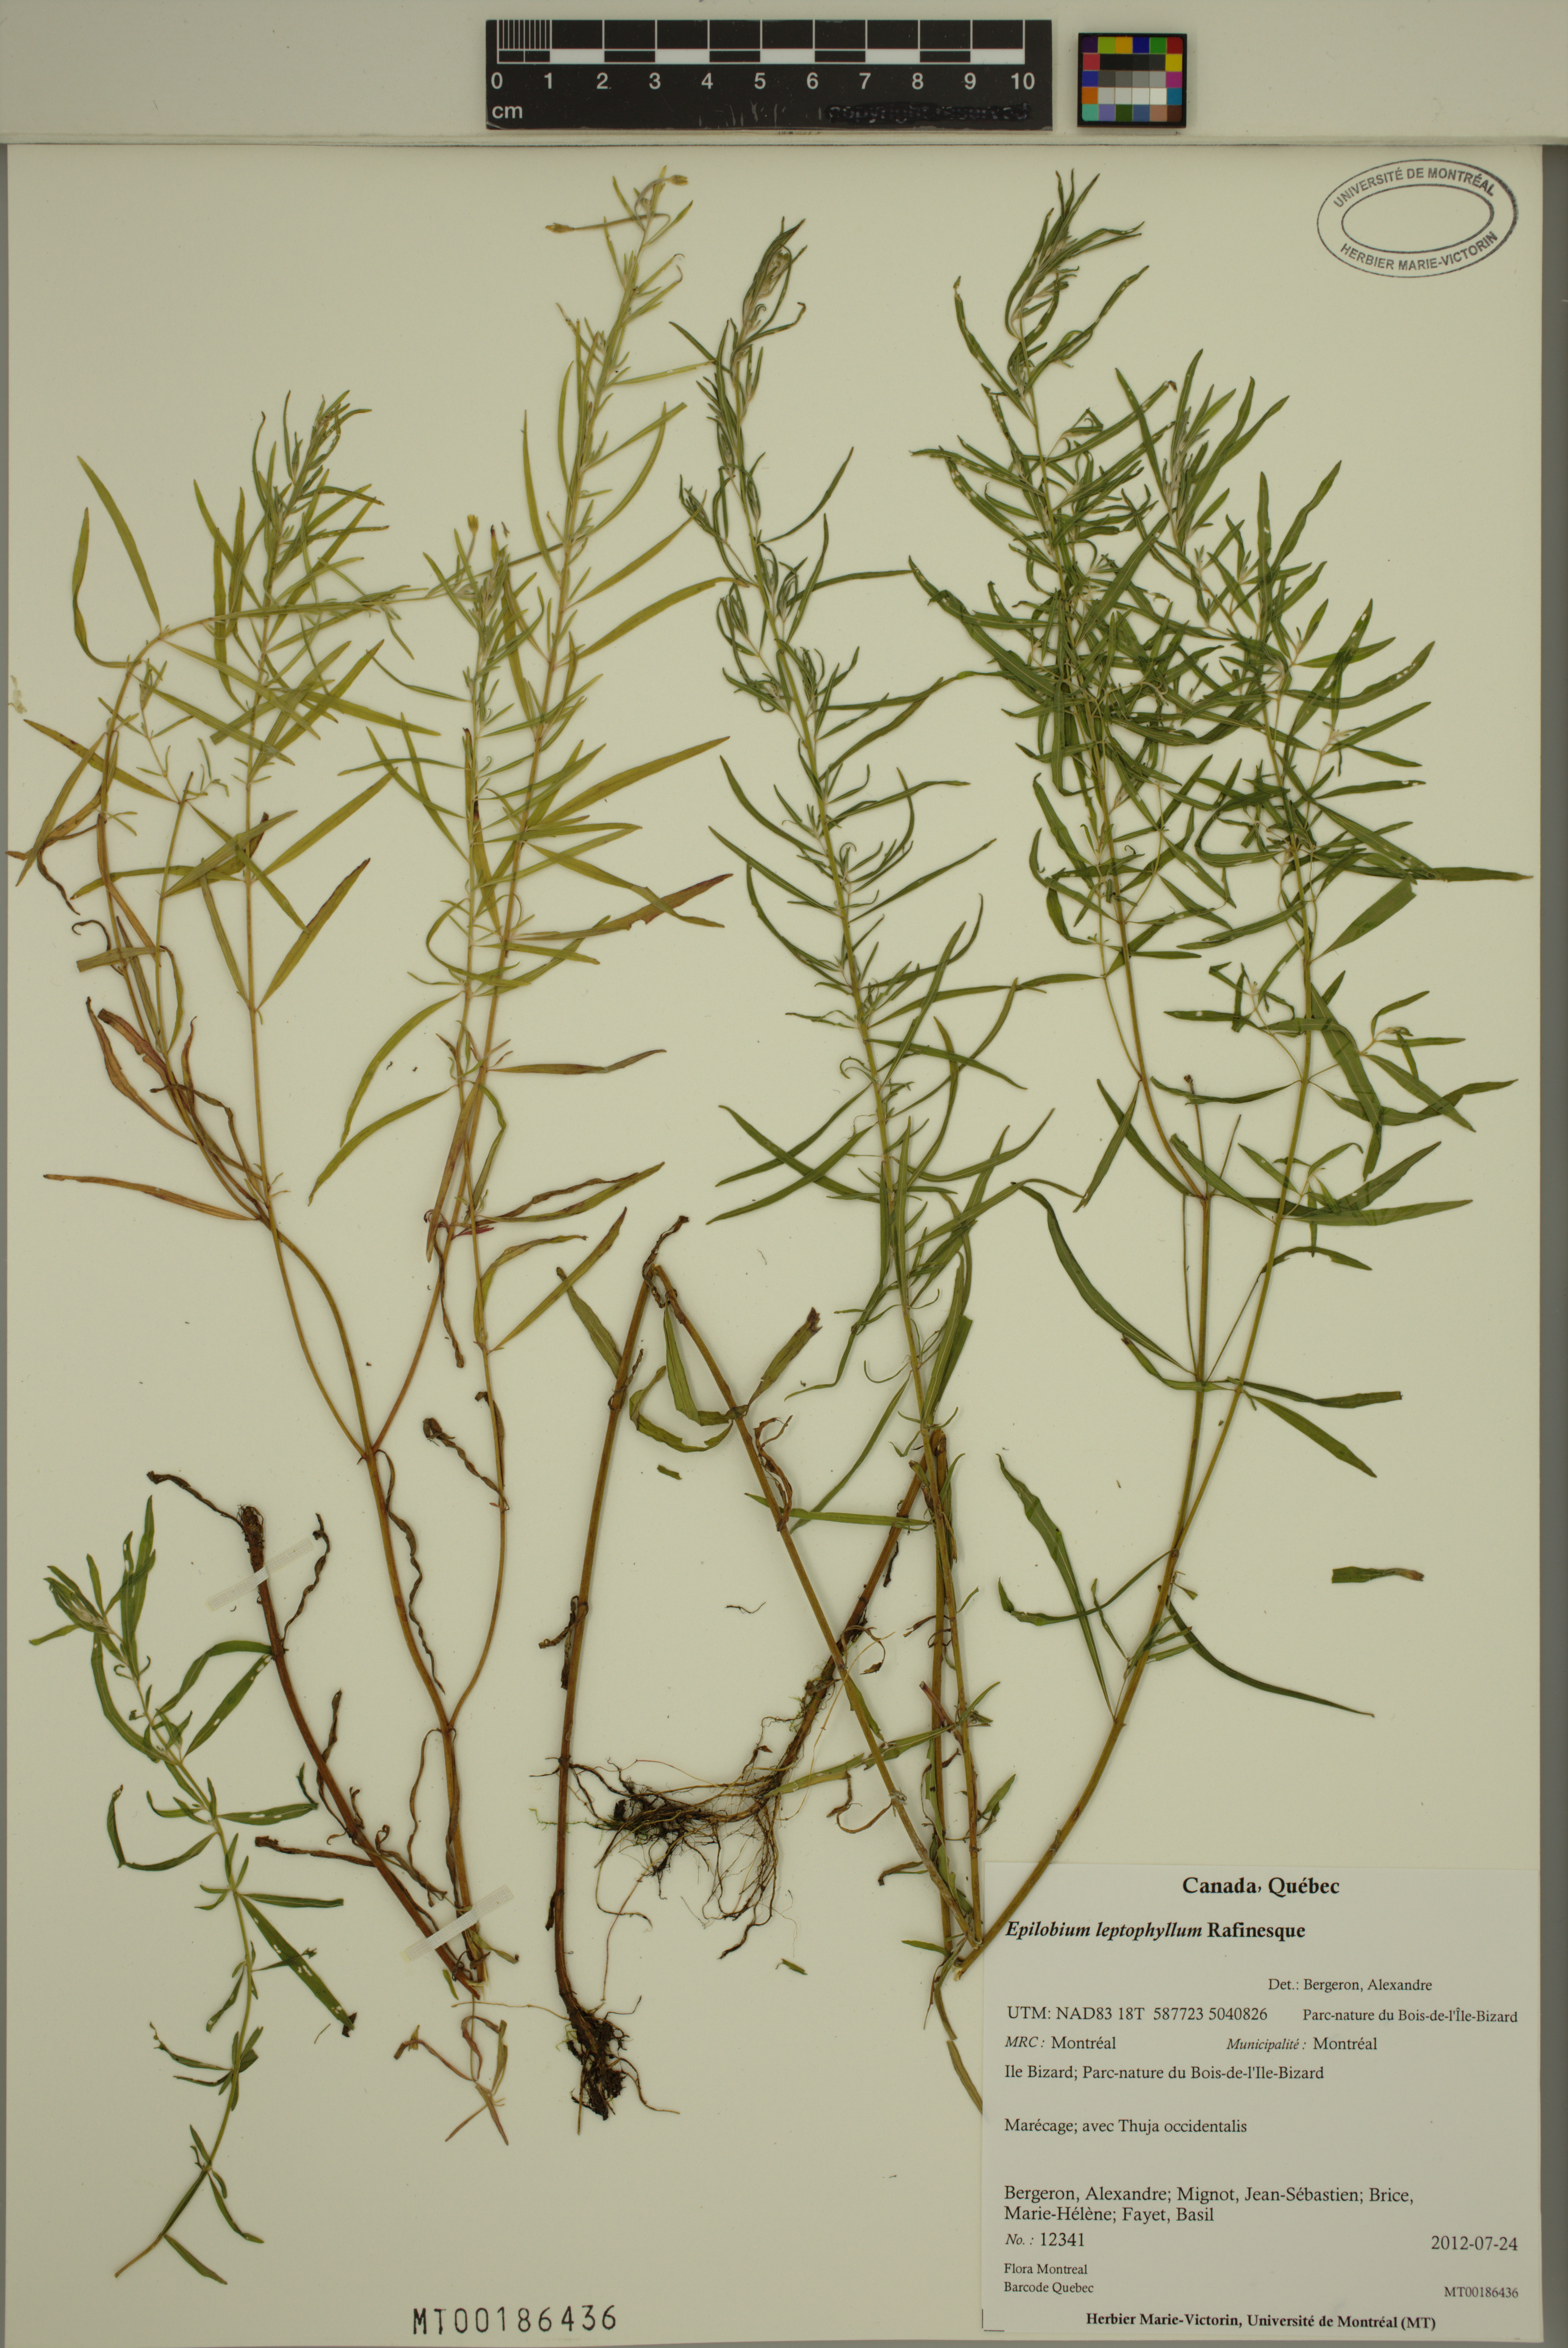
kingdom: Plantae
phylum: Tracheophyta
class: Magnoliopsida
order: Myrtales
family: Onagraceae
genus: Epilobium
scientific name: Epilobium leptophyllum
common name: Bog willowherb
